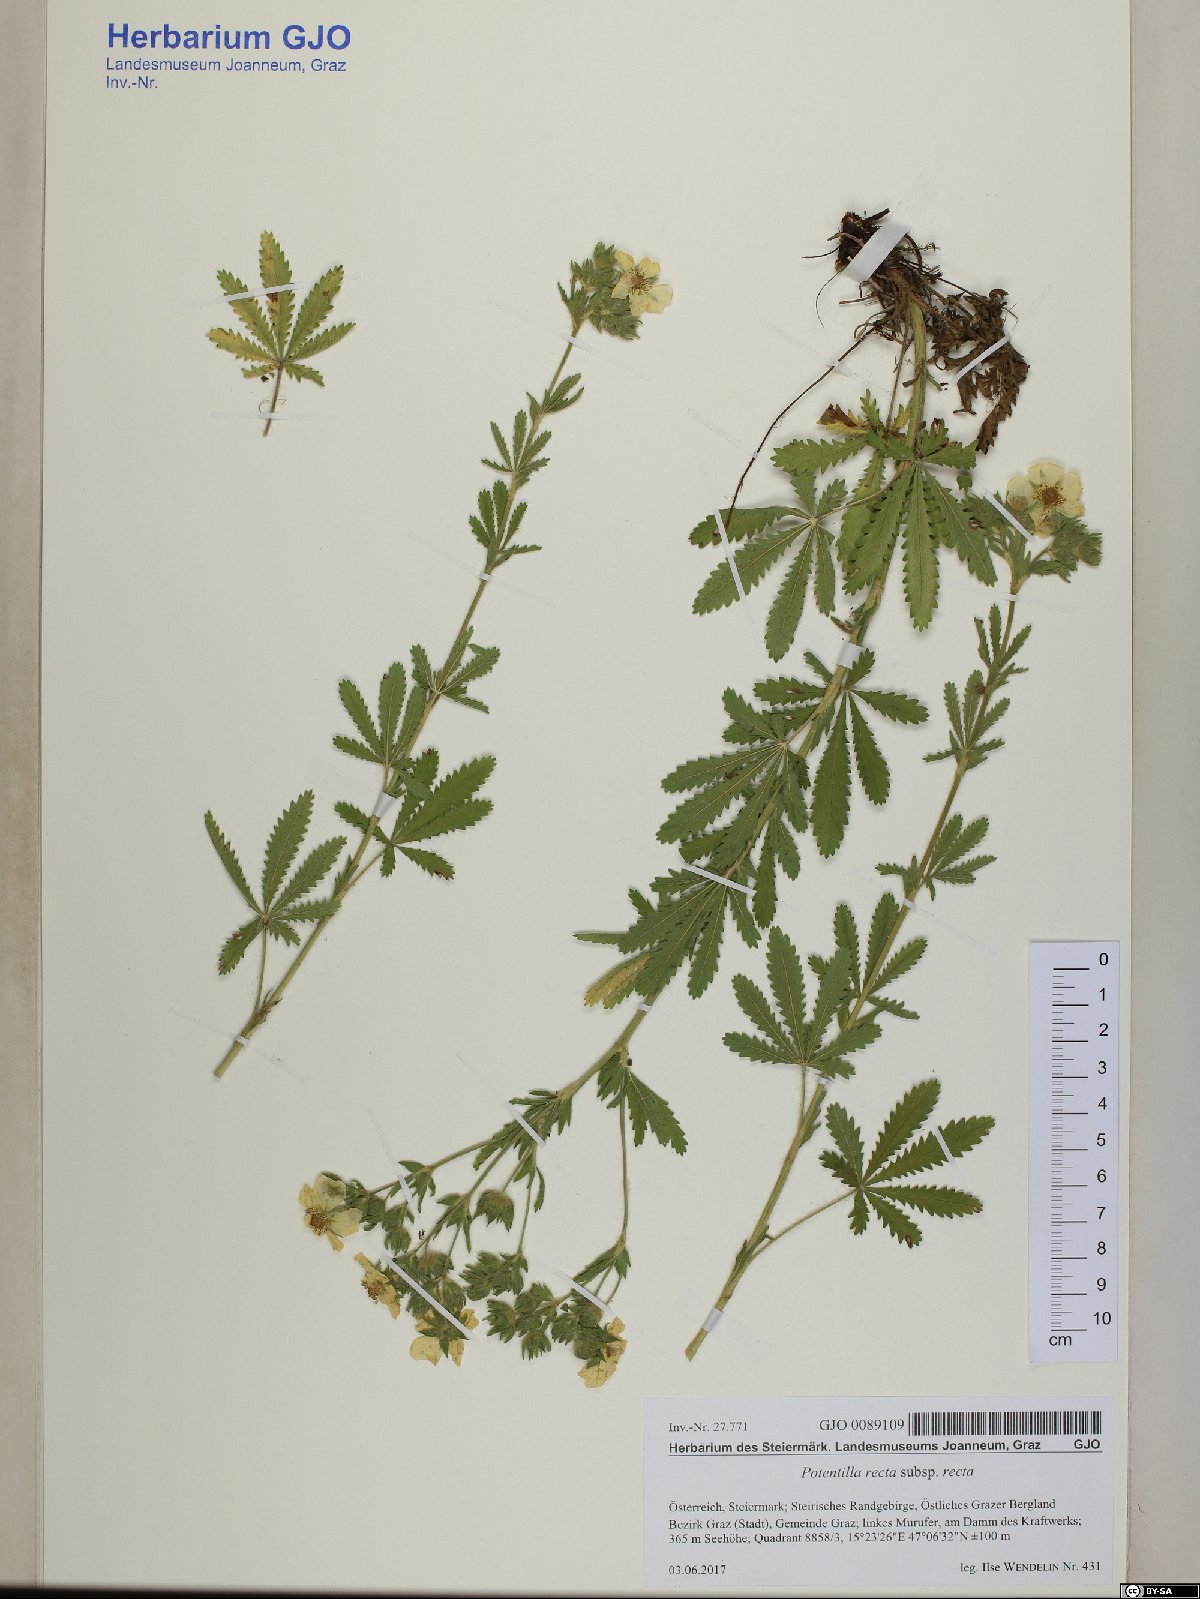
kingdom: Plantae
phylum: Tracheophyta
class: Magnoliopsida
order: Rosales
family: Rosaceae
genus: Potentilla
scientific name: Potentilla recta
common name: Sulphur cinquefoil
